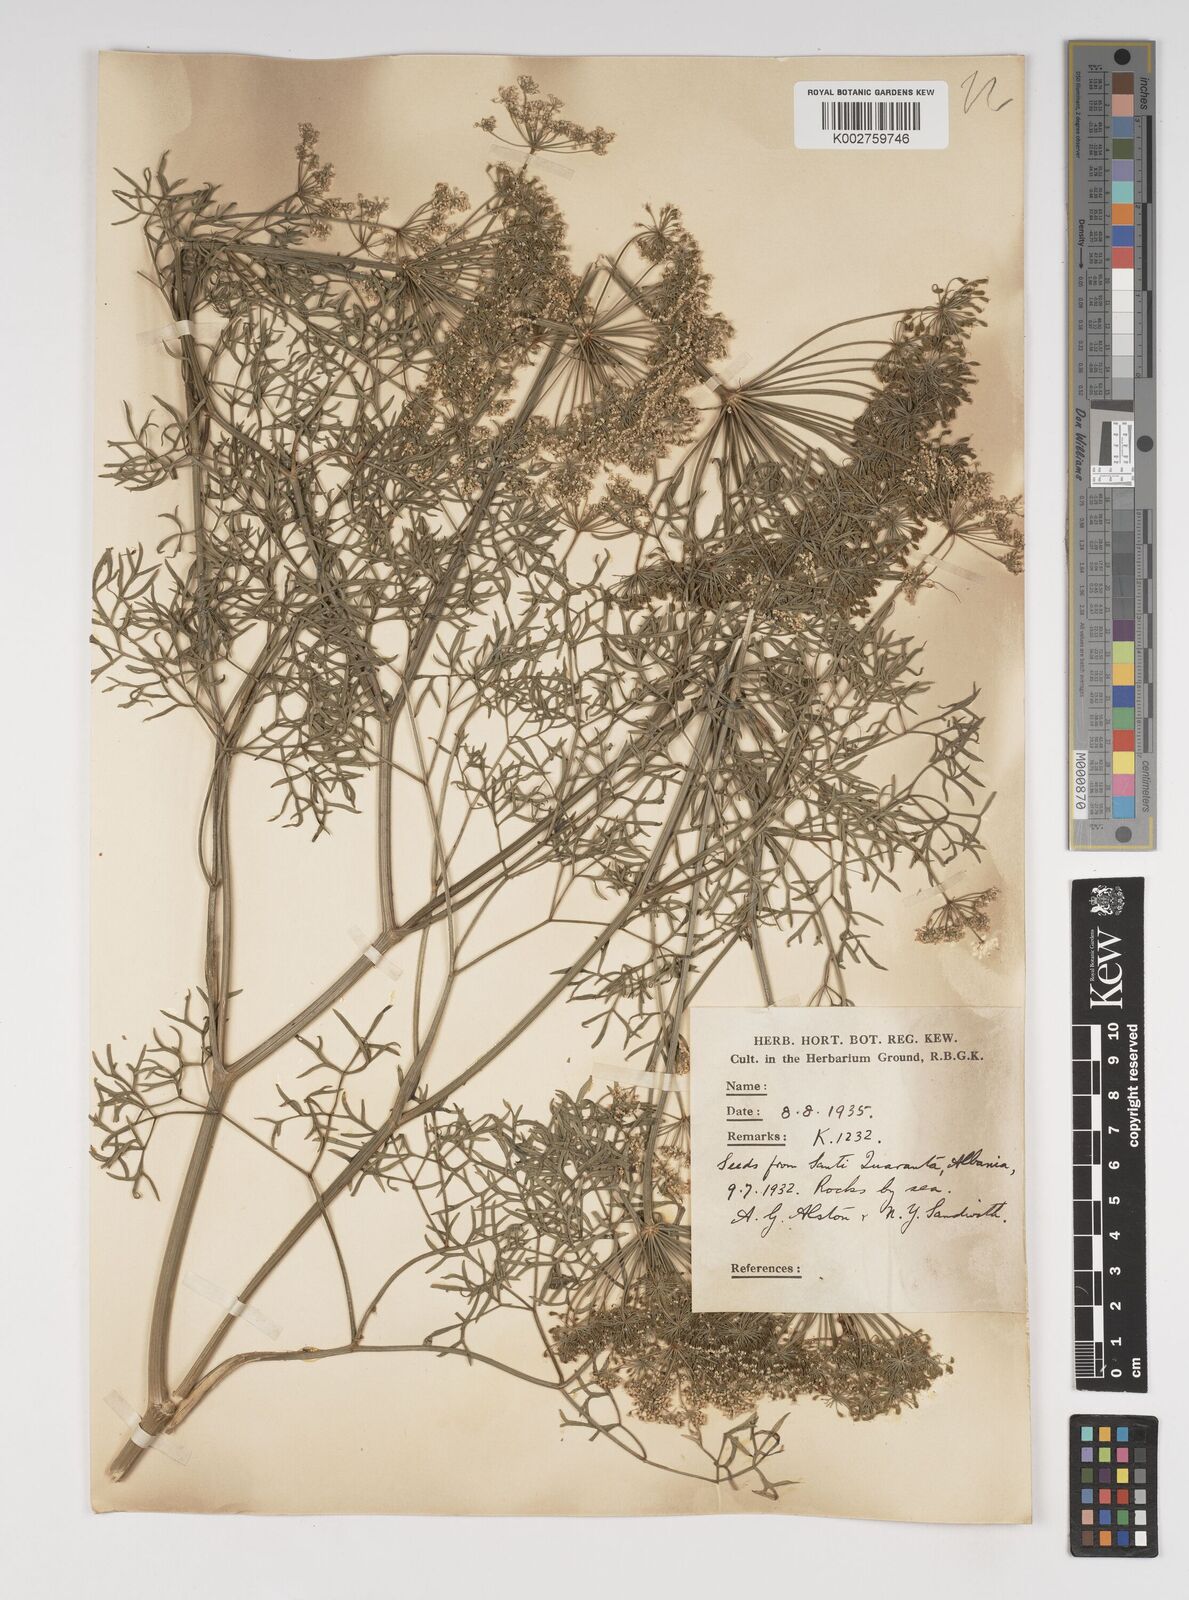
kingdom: Plantae
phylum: Tracheophyta
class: Magnoliopsida
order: Apiales
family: Apiaceae
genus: Katapsuxis
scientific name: Katapsuxis silaifolia
